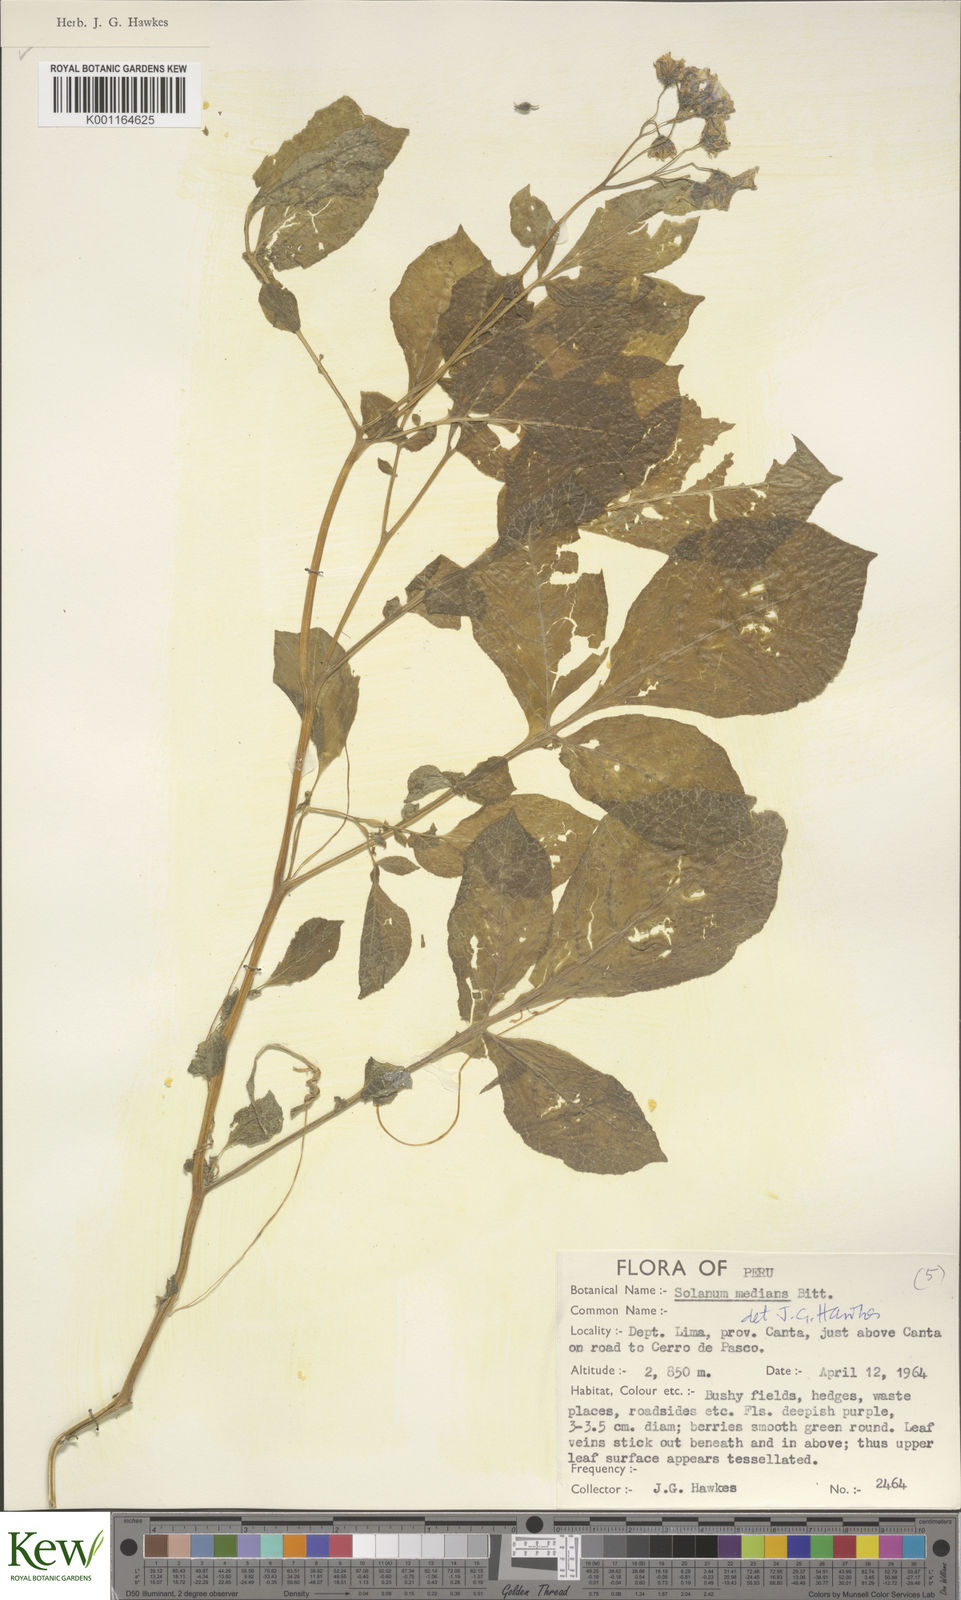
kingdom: Plantae
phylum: Tracheophyta
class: Magnoliopsida
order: Solanales
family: Solanaceae
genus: Solanum
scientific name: Solanum medians
